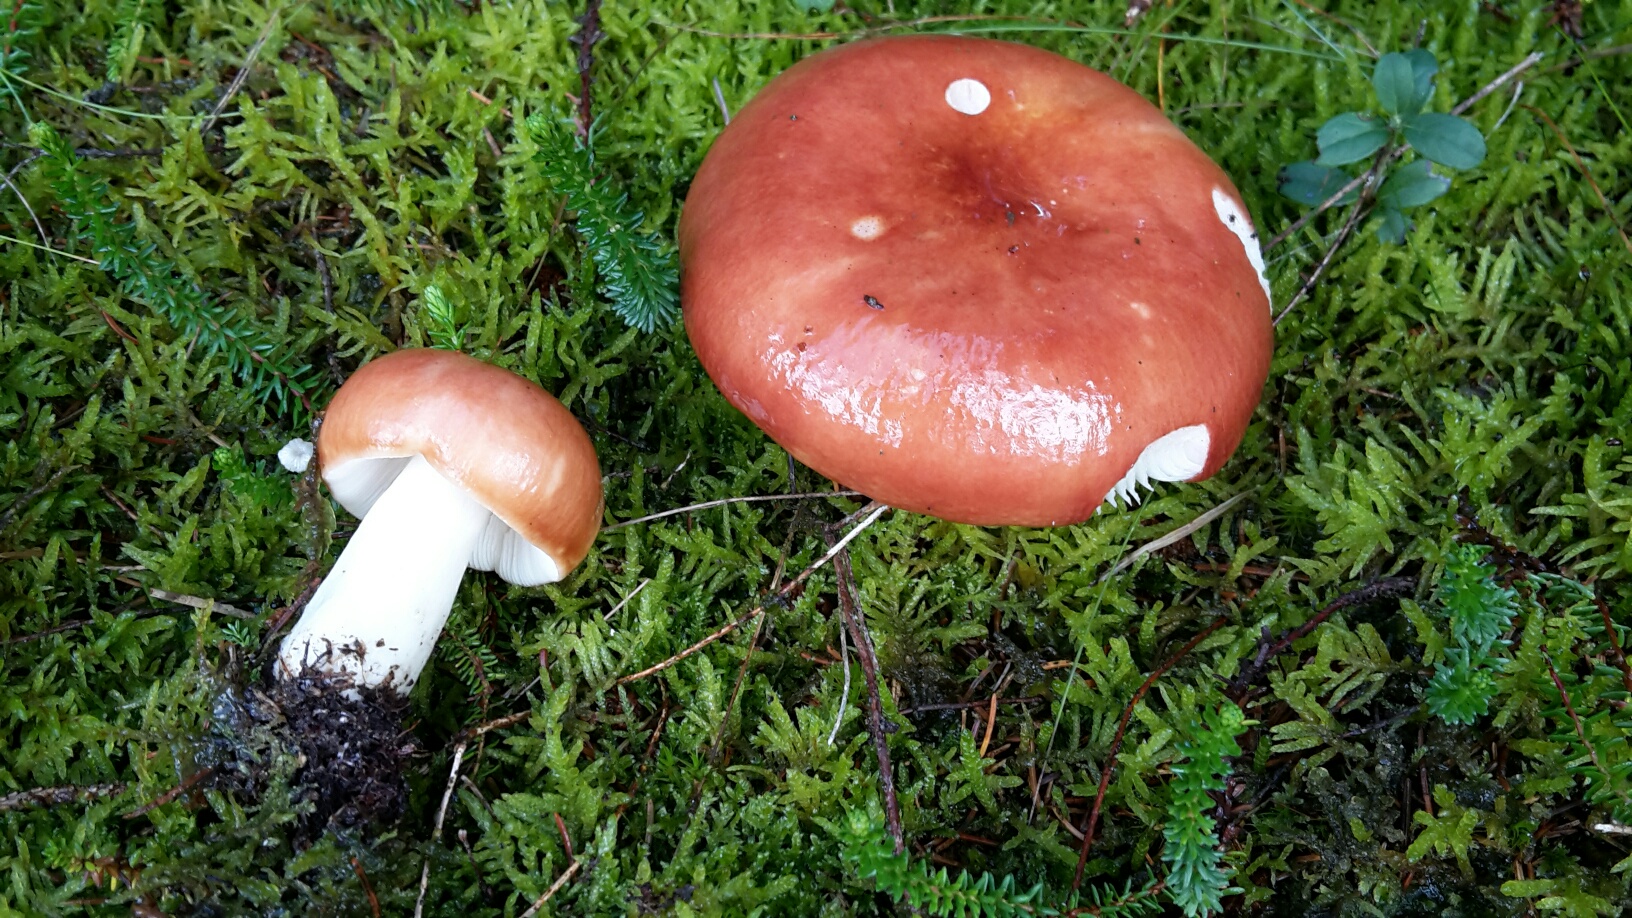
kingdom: Fungi
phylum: Basidiomycota
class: Agaricomycetes
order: Russulales
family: Russulaceae
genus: Russula
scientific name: Russula paludosa
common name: prægtig skørhat
